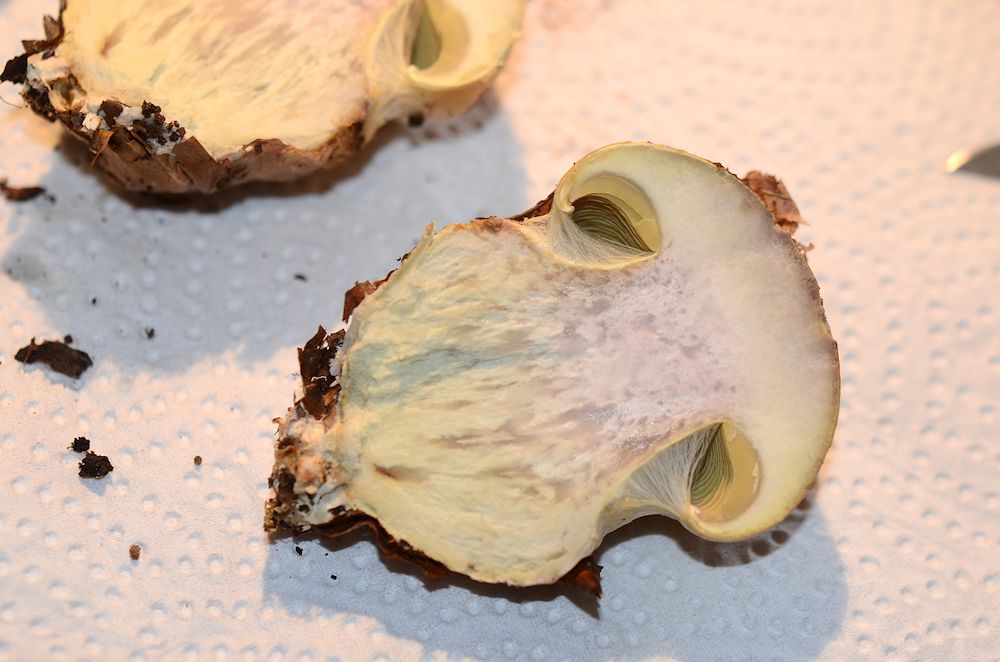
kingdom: Fungi
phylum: Basidiomycota
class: Agaricomycetes
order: Agaricales
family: Cortinariaceae
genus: Calonarius
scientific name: Calonarius elegantissimus
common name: orangegylden slørhat
